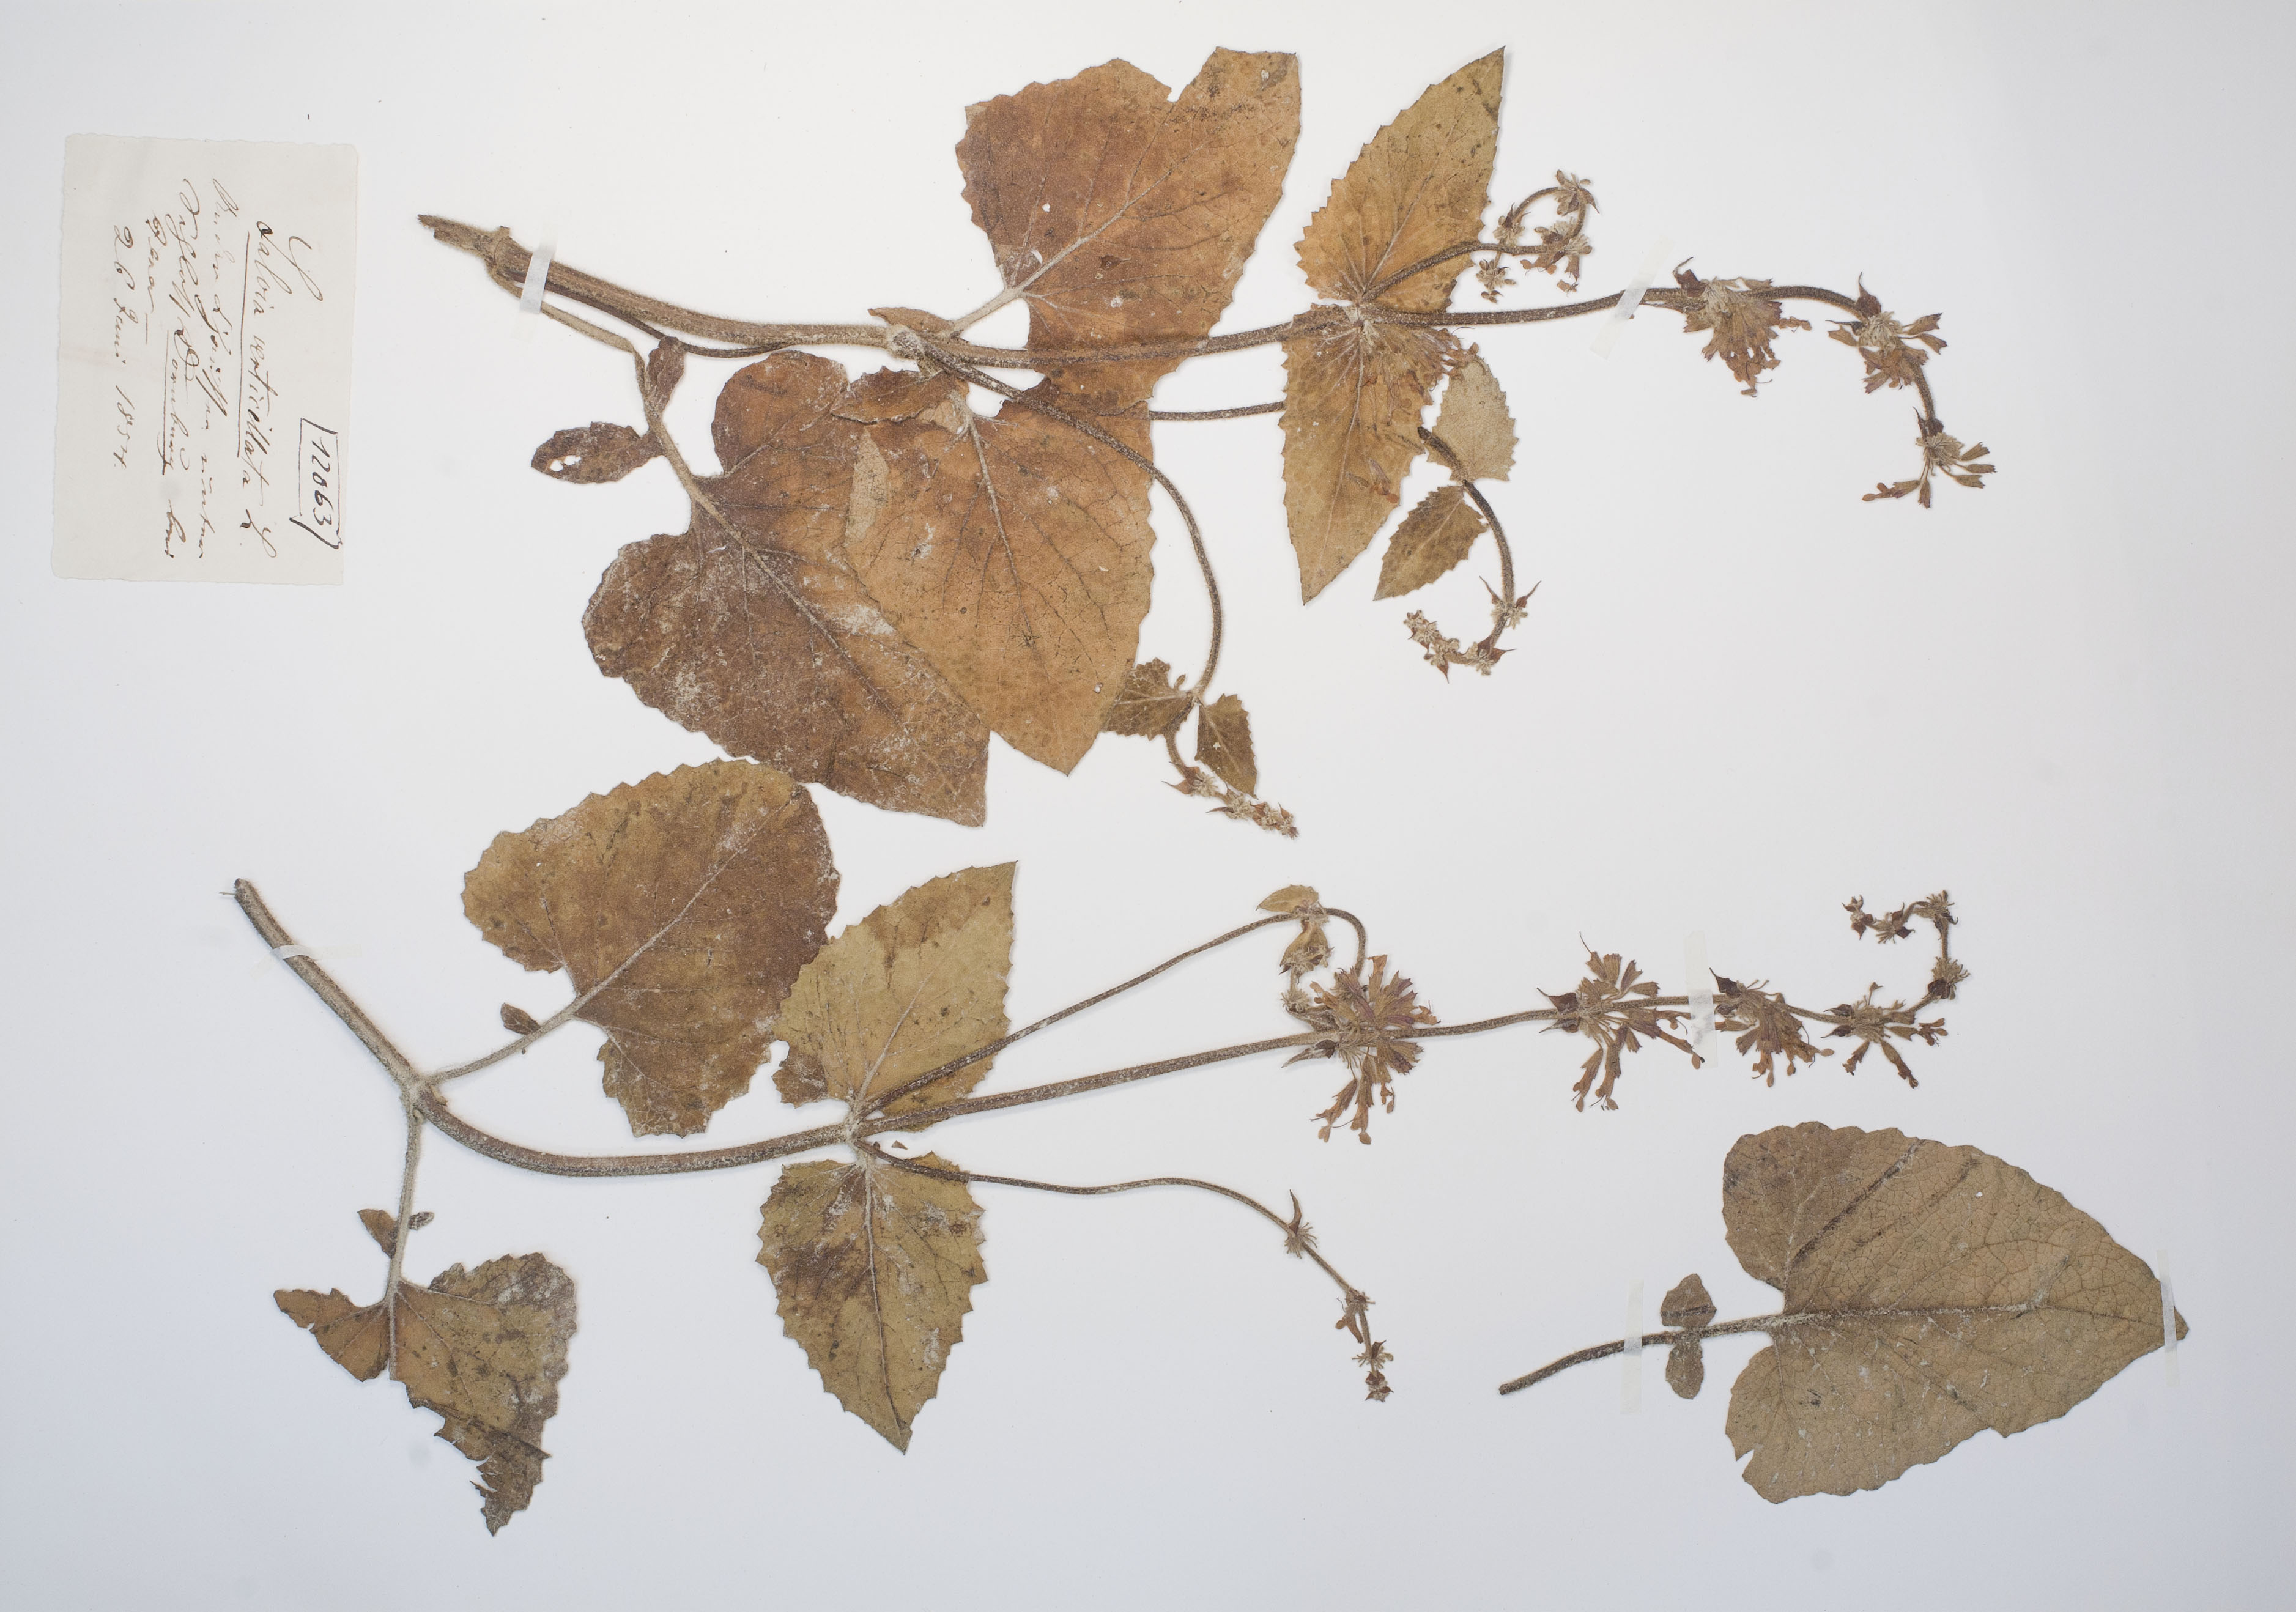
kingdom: Plantae
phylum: Tracheophyta
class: Magnoliopsida
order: Lamiales
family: Lamiaceae
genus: Salvia
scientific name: Salvia verticillata
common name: Whorled clary
